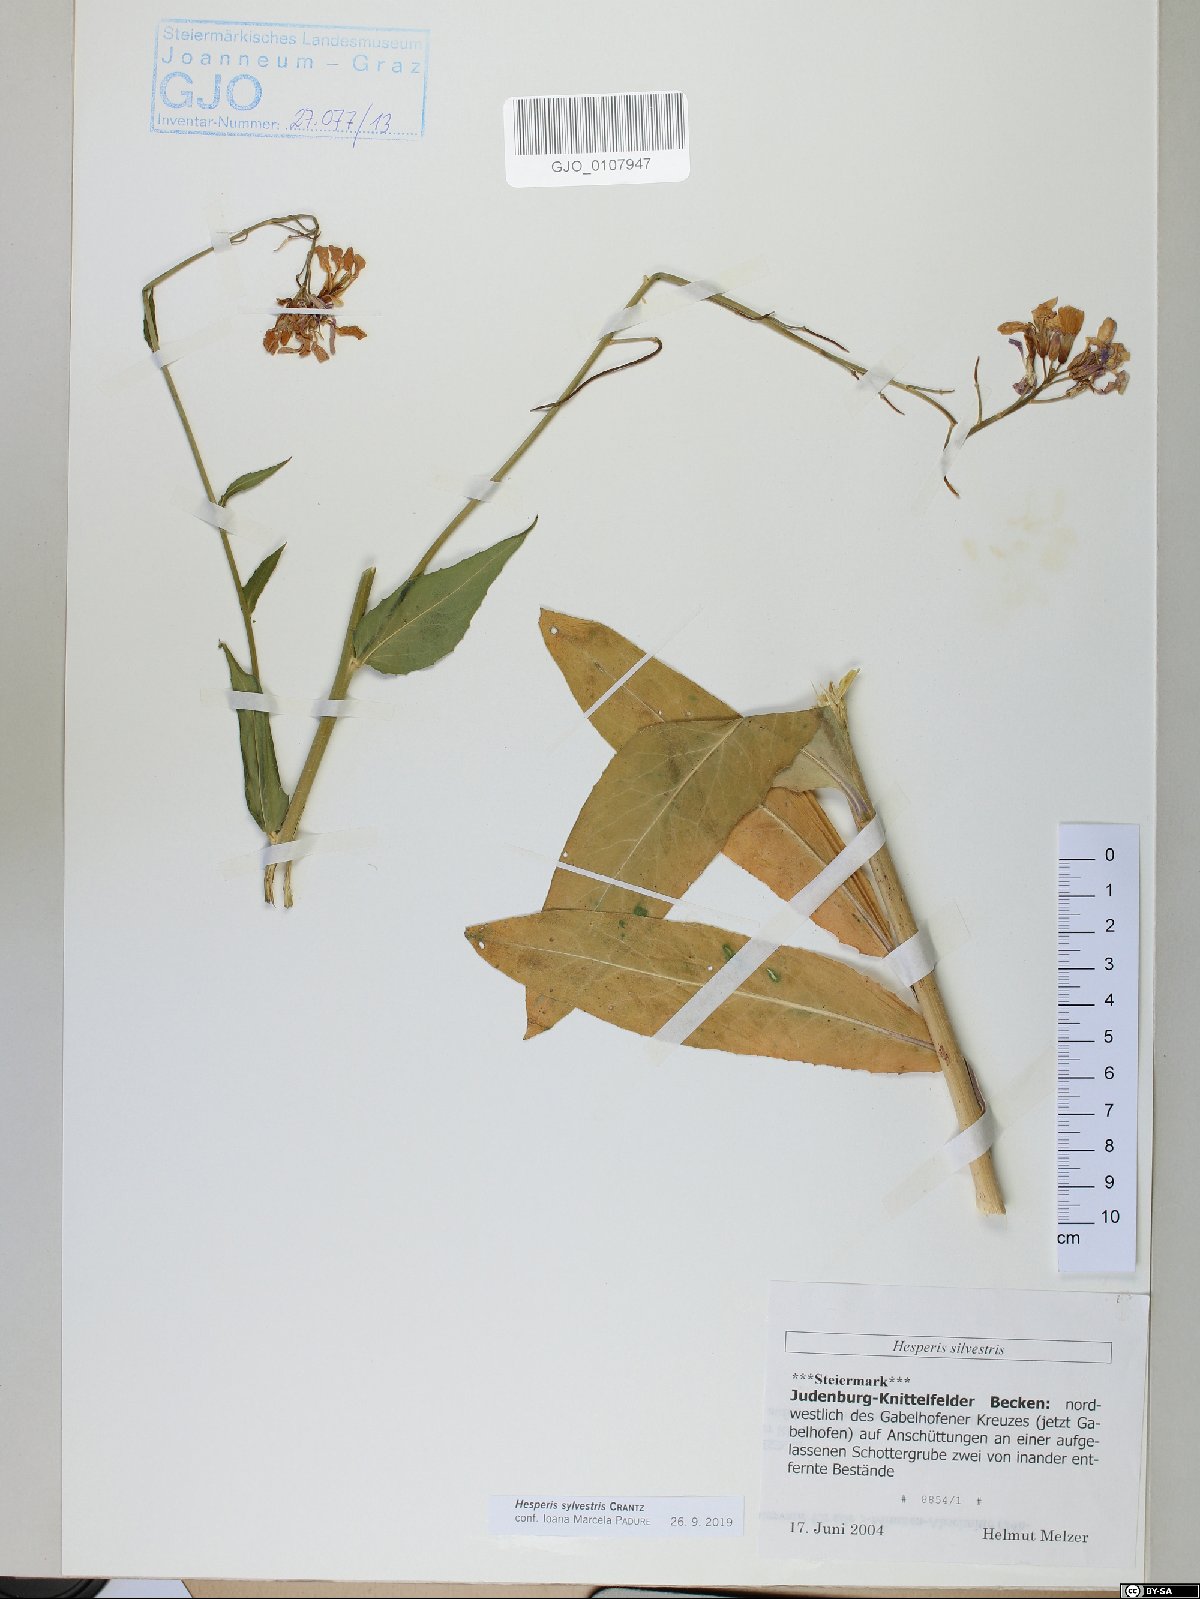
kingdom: Plantae
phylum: Tracheophyta
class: Magnoliopsida
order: Brassicales
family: Brassicaceae
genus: Hesperis
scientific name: Hesperis sylvestris
